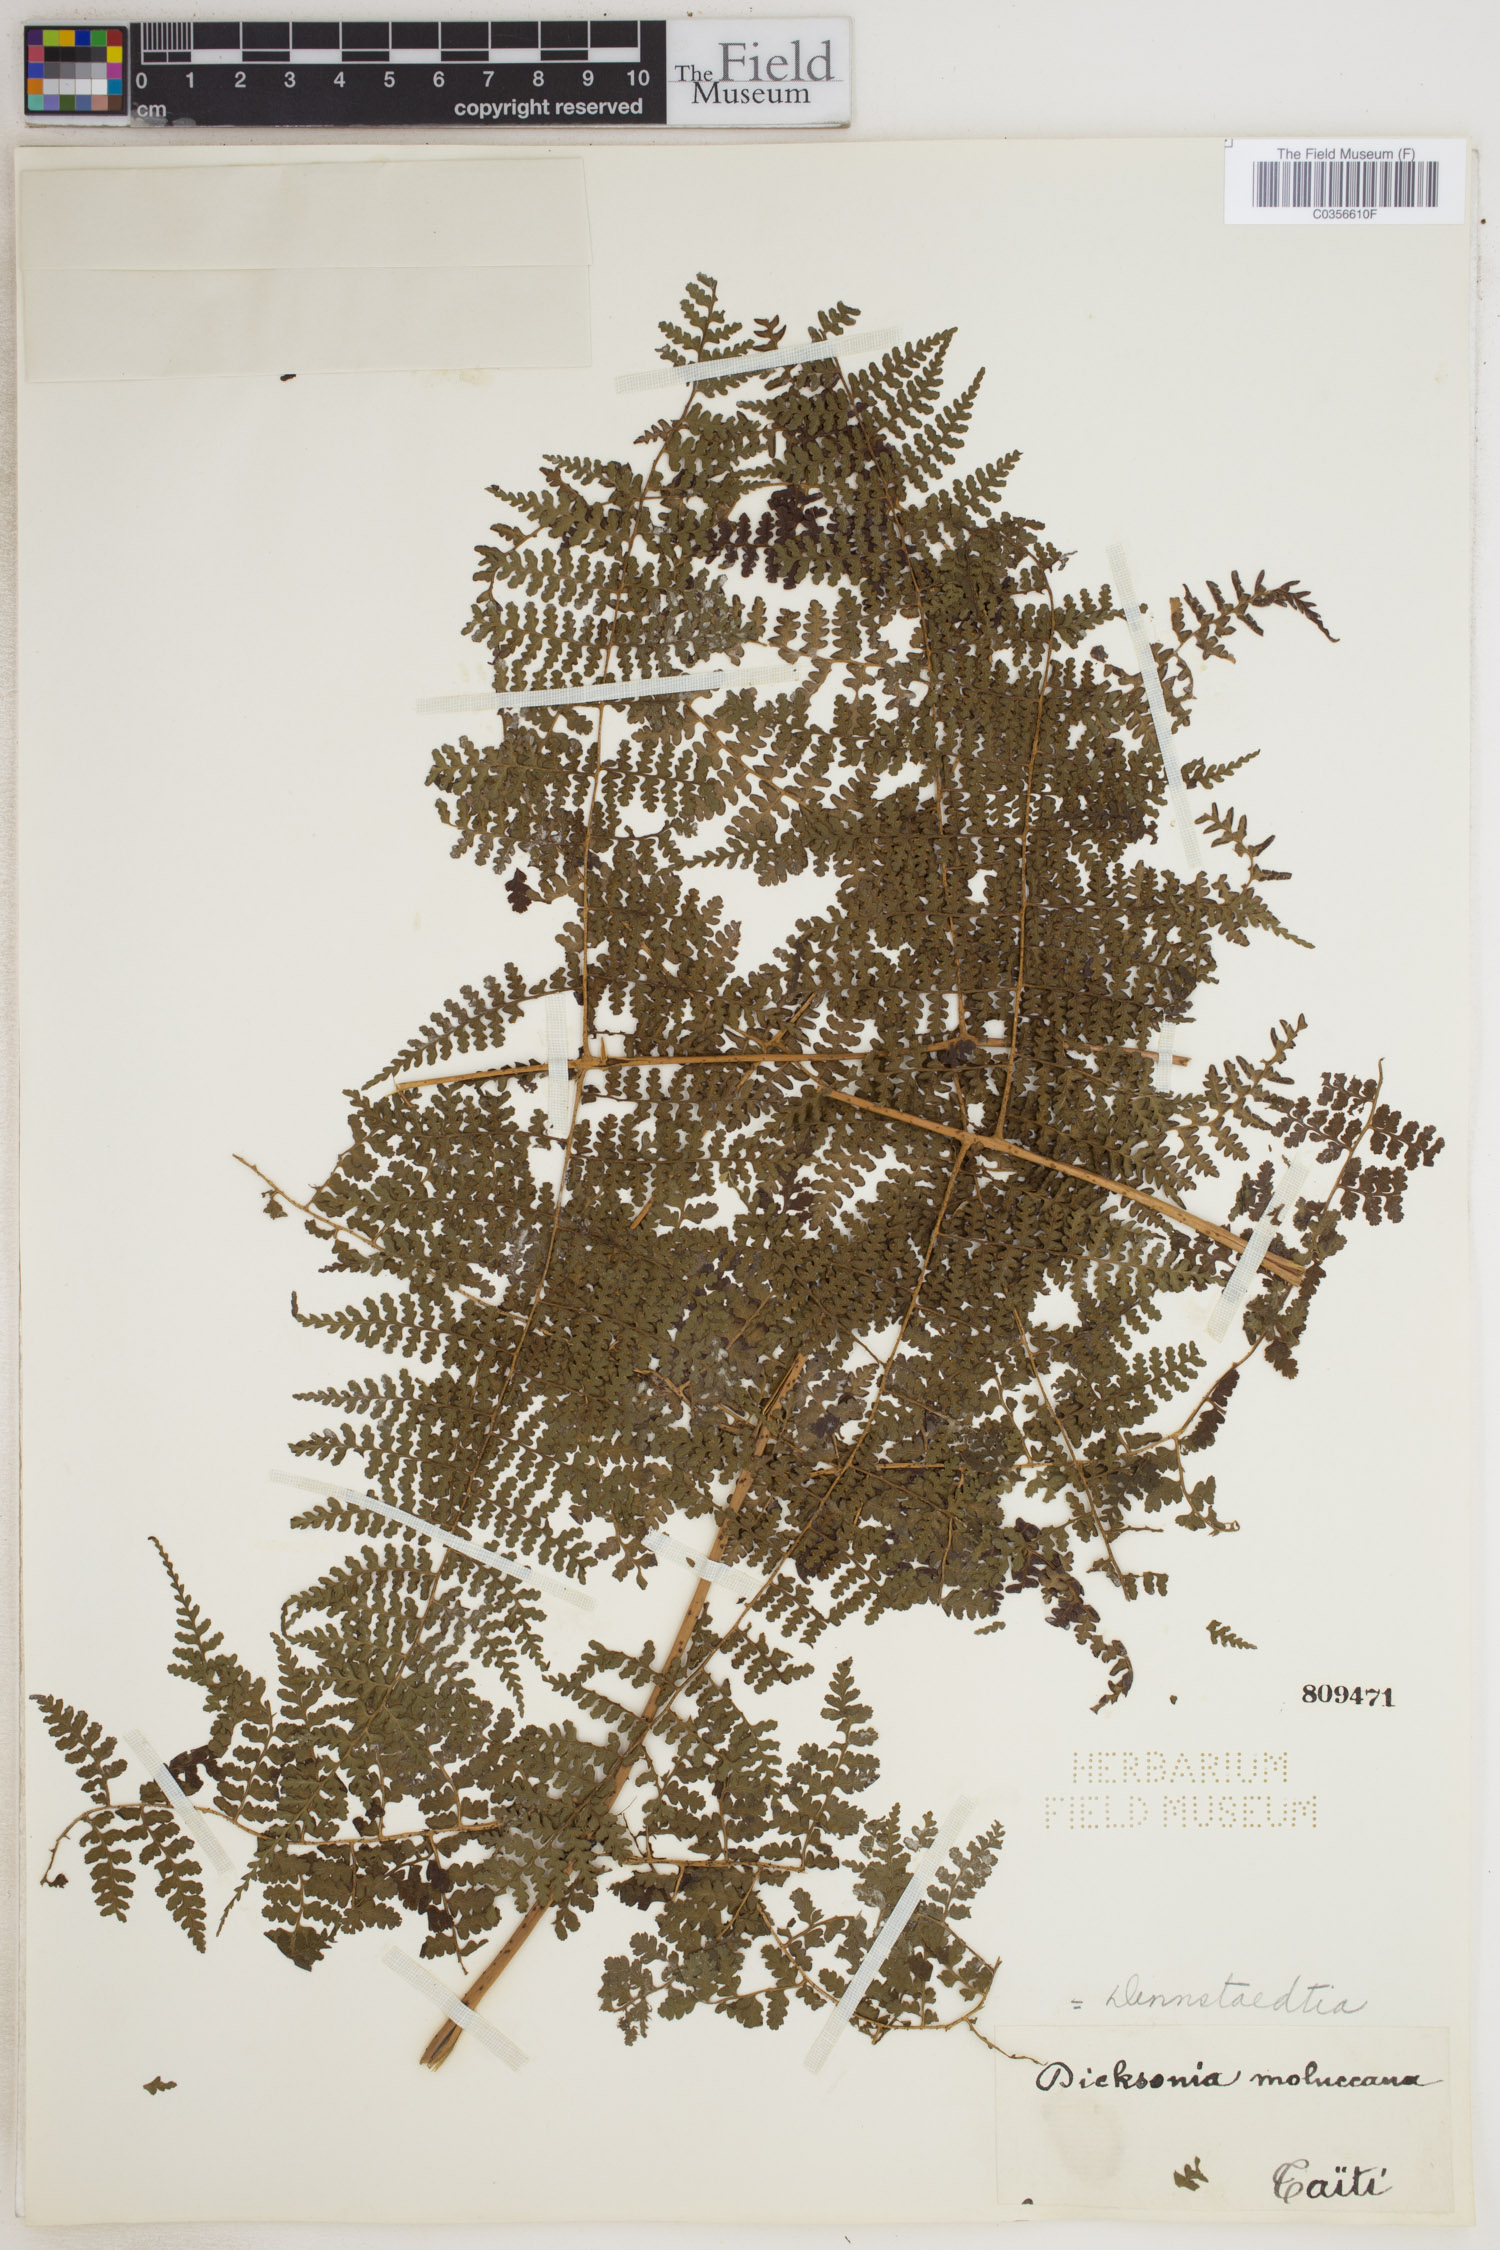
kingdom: Plantae
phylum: Tracheophyta
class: Polypodiopsida
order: Polypodiales
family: Lindsaeaceae
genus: Tapeinidium
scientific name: Tapeinidium moluccanum
